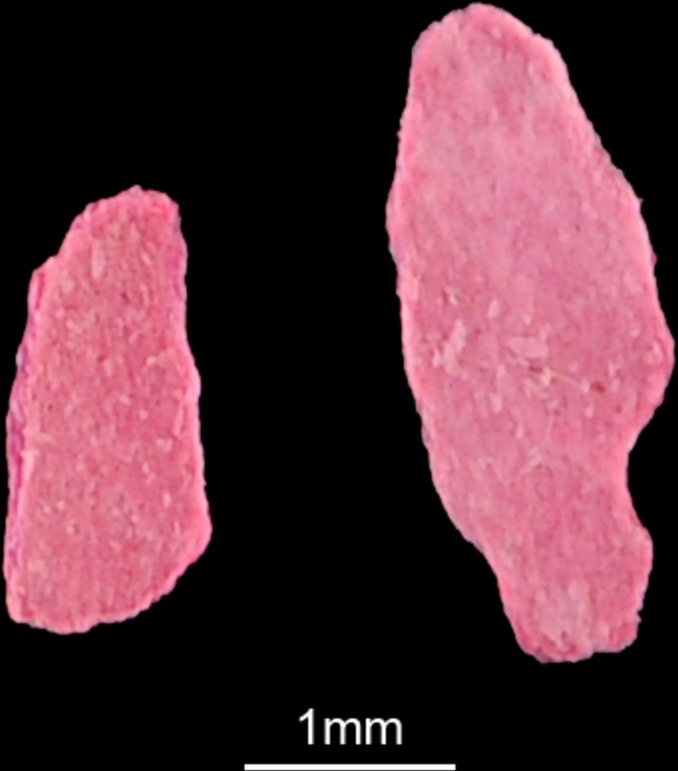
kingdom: Animalia
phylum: Chordata
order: Characiformes
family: Alestidae
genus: Alestes
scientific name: Alestes dentex
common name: Characin
